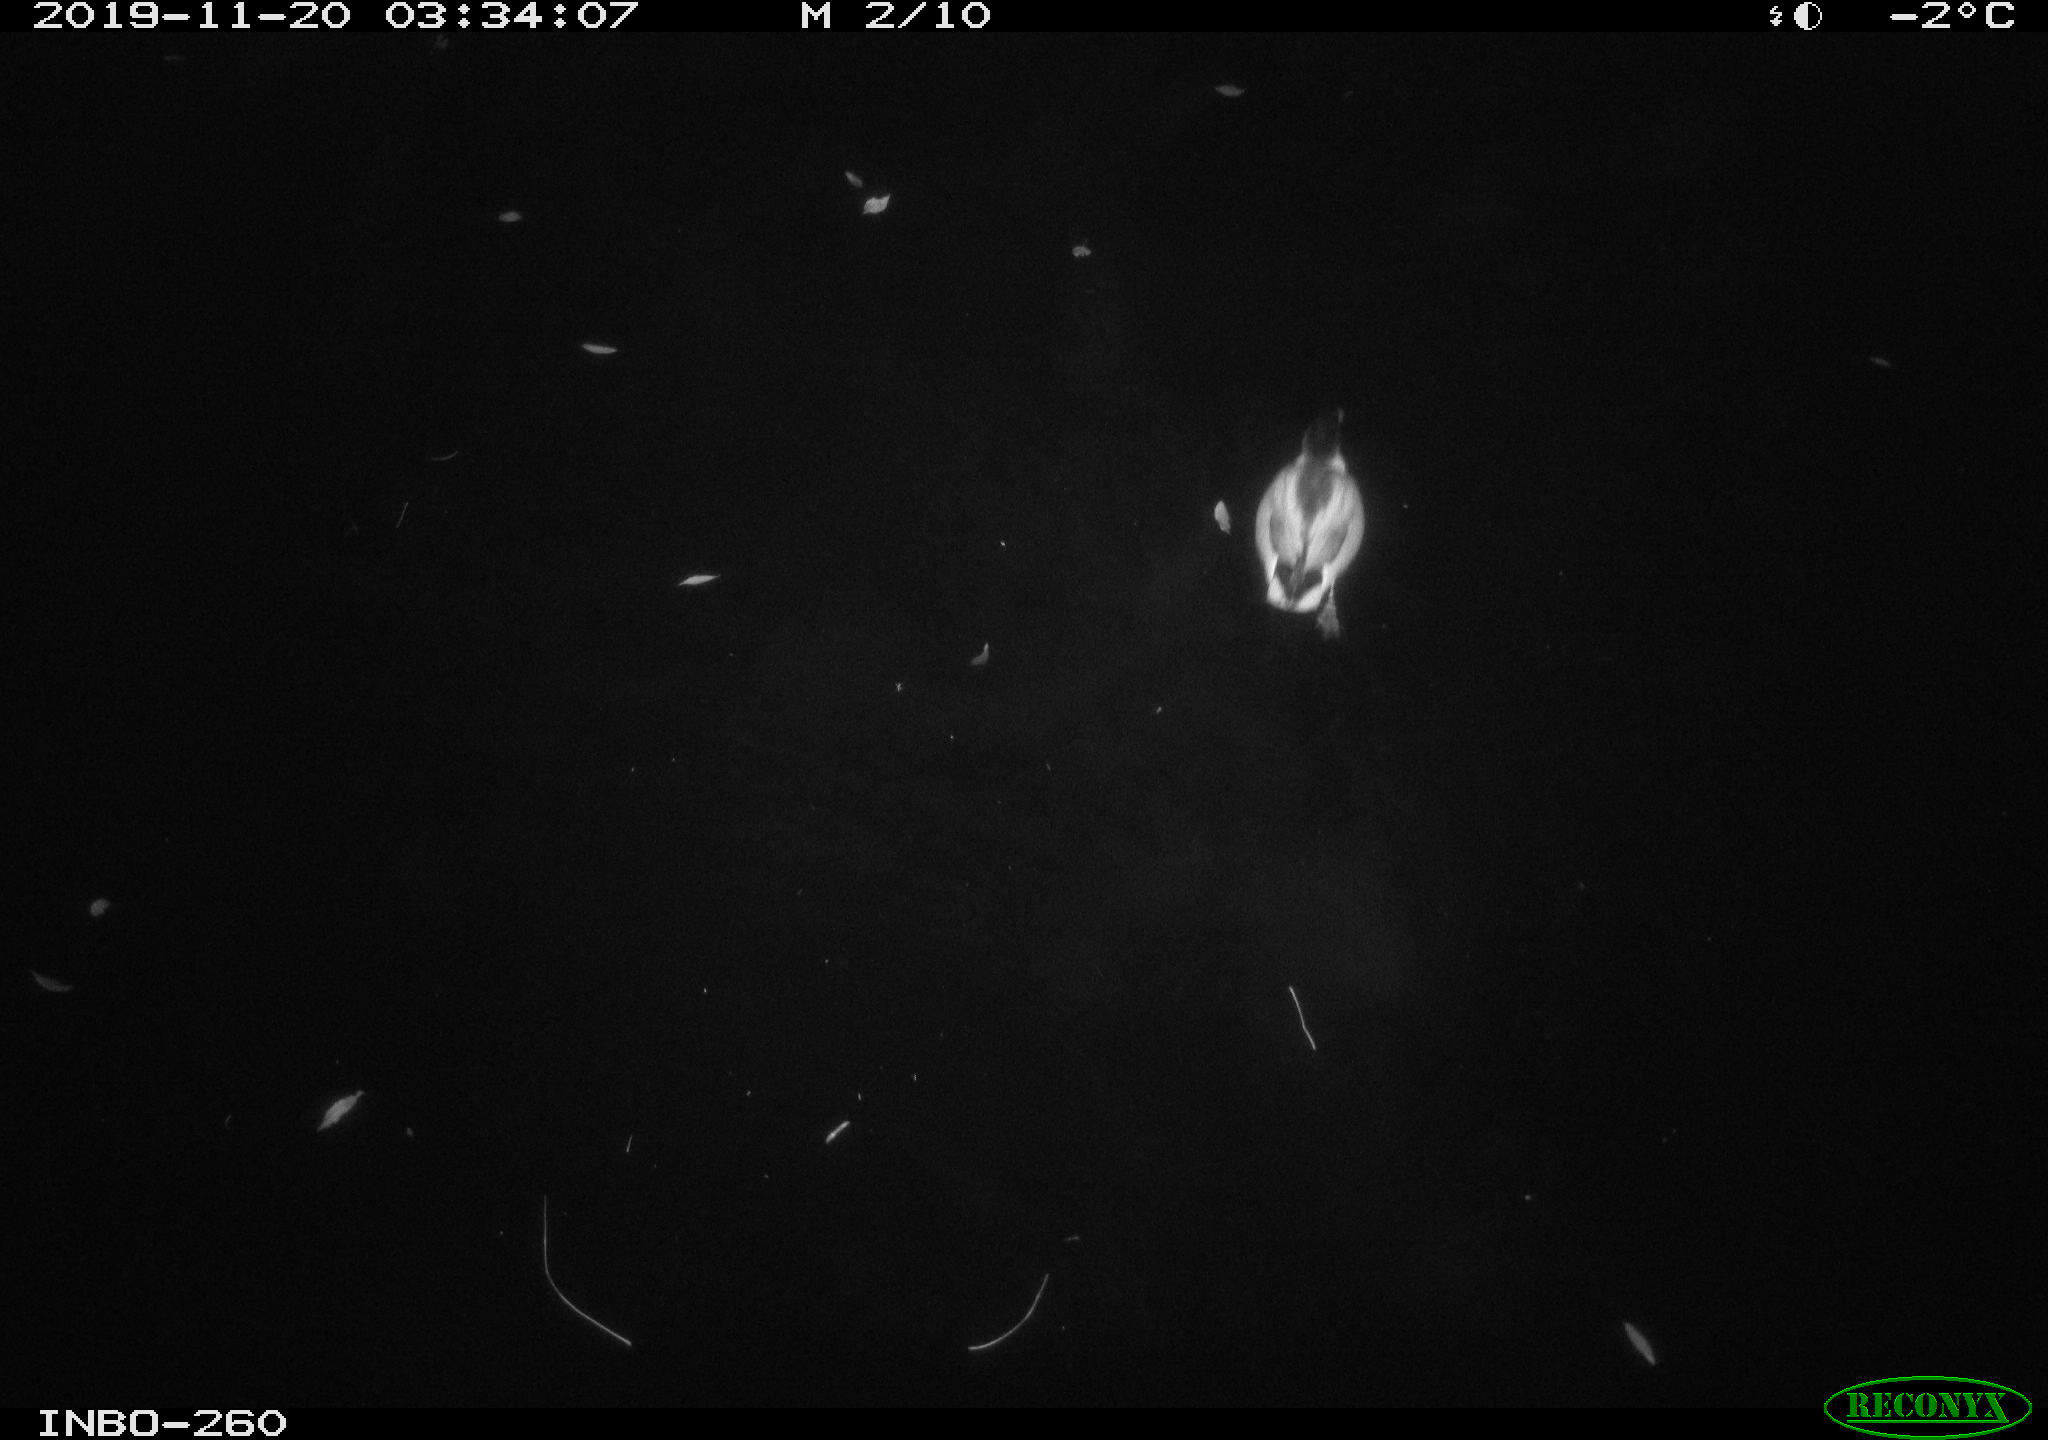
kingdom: Animalia
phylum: Chordata
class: Aves
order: Anseriformes
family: Anatidae
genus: Anas
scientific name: Anas platyrhynchos
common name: Mallard
